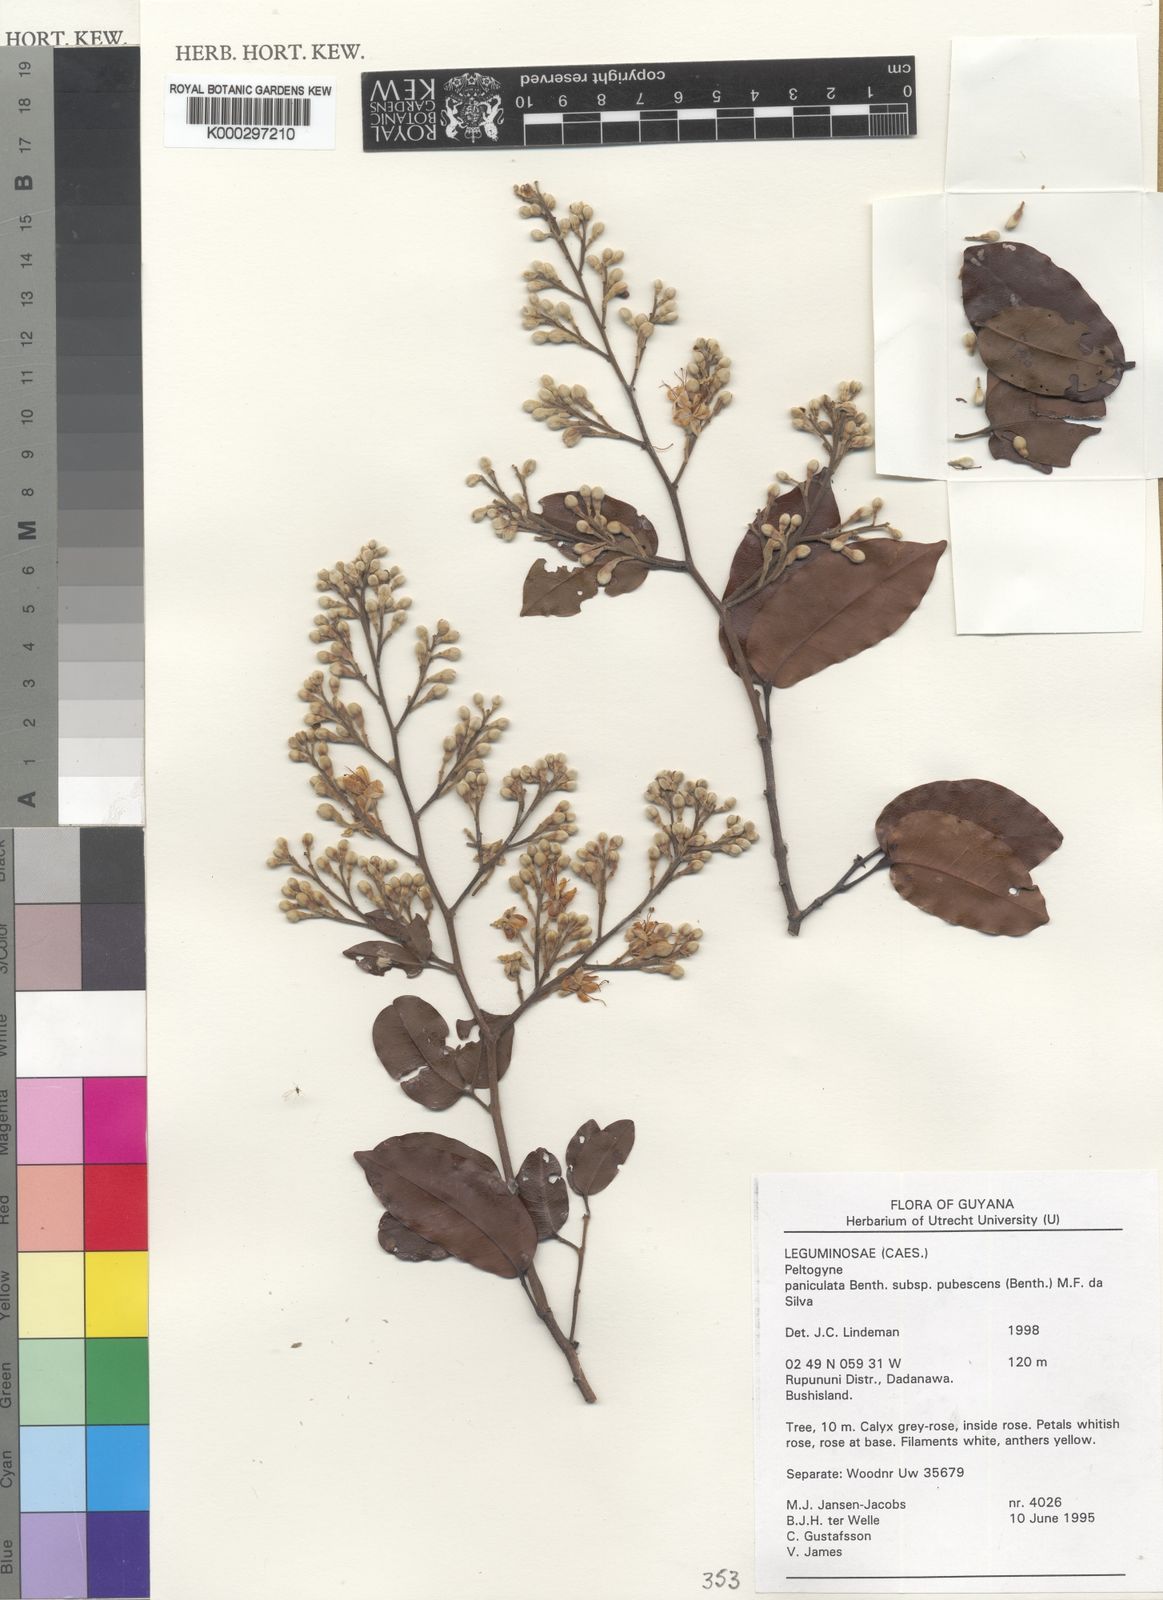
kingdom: Plantae
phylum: Tracheophyta
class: Magnoliopsida
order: Fabales
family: Fabaceae
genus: Peltogyne
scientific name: Peltogyne paniculata
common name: Purpleheart
